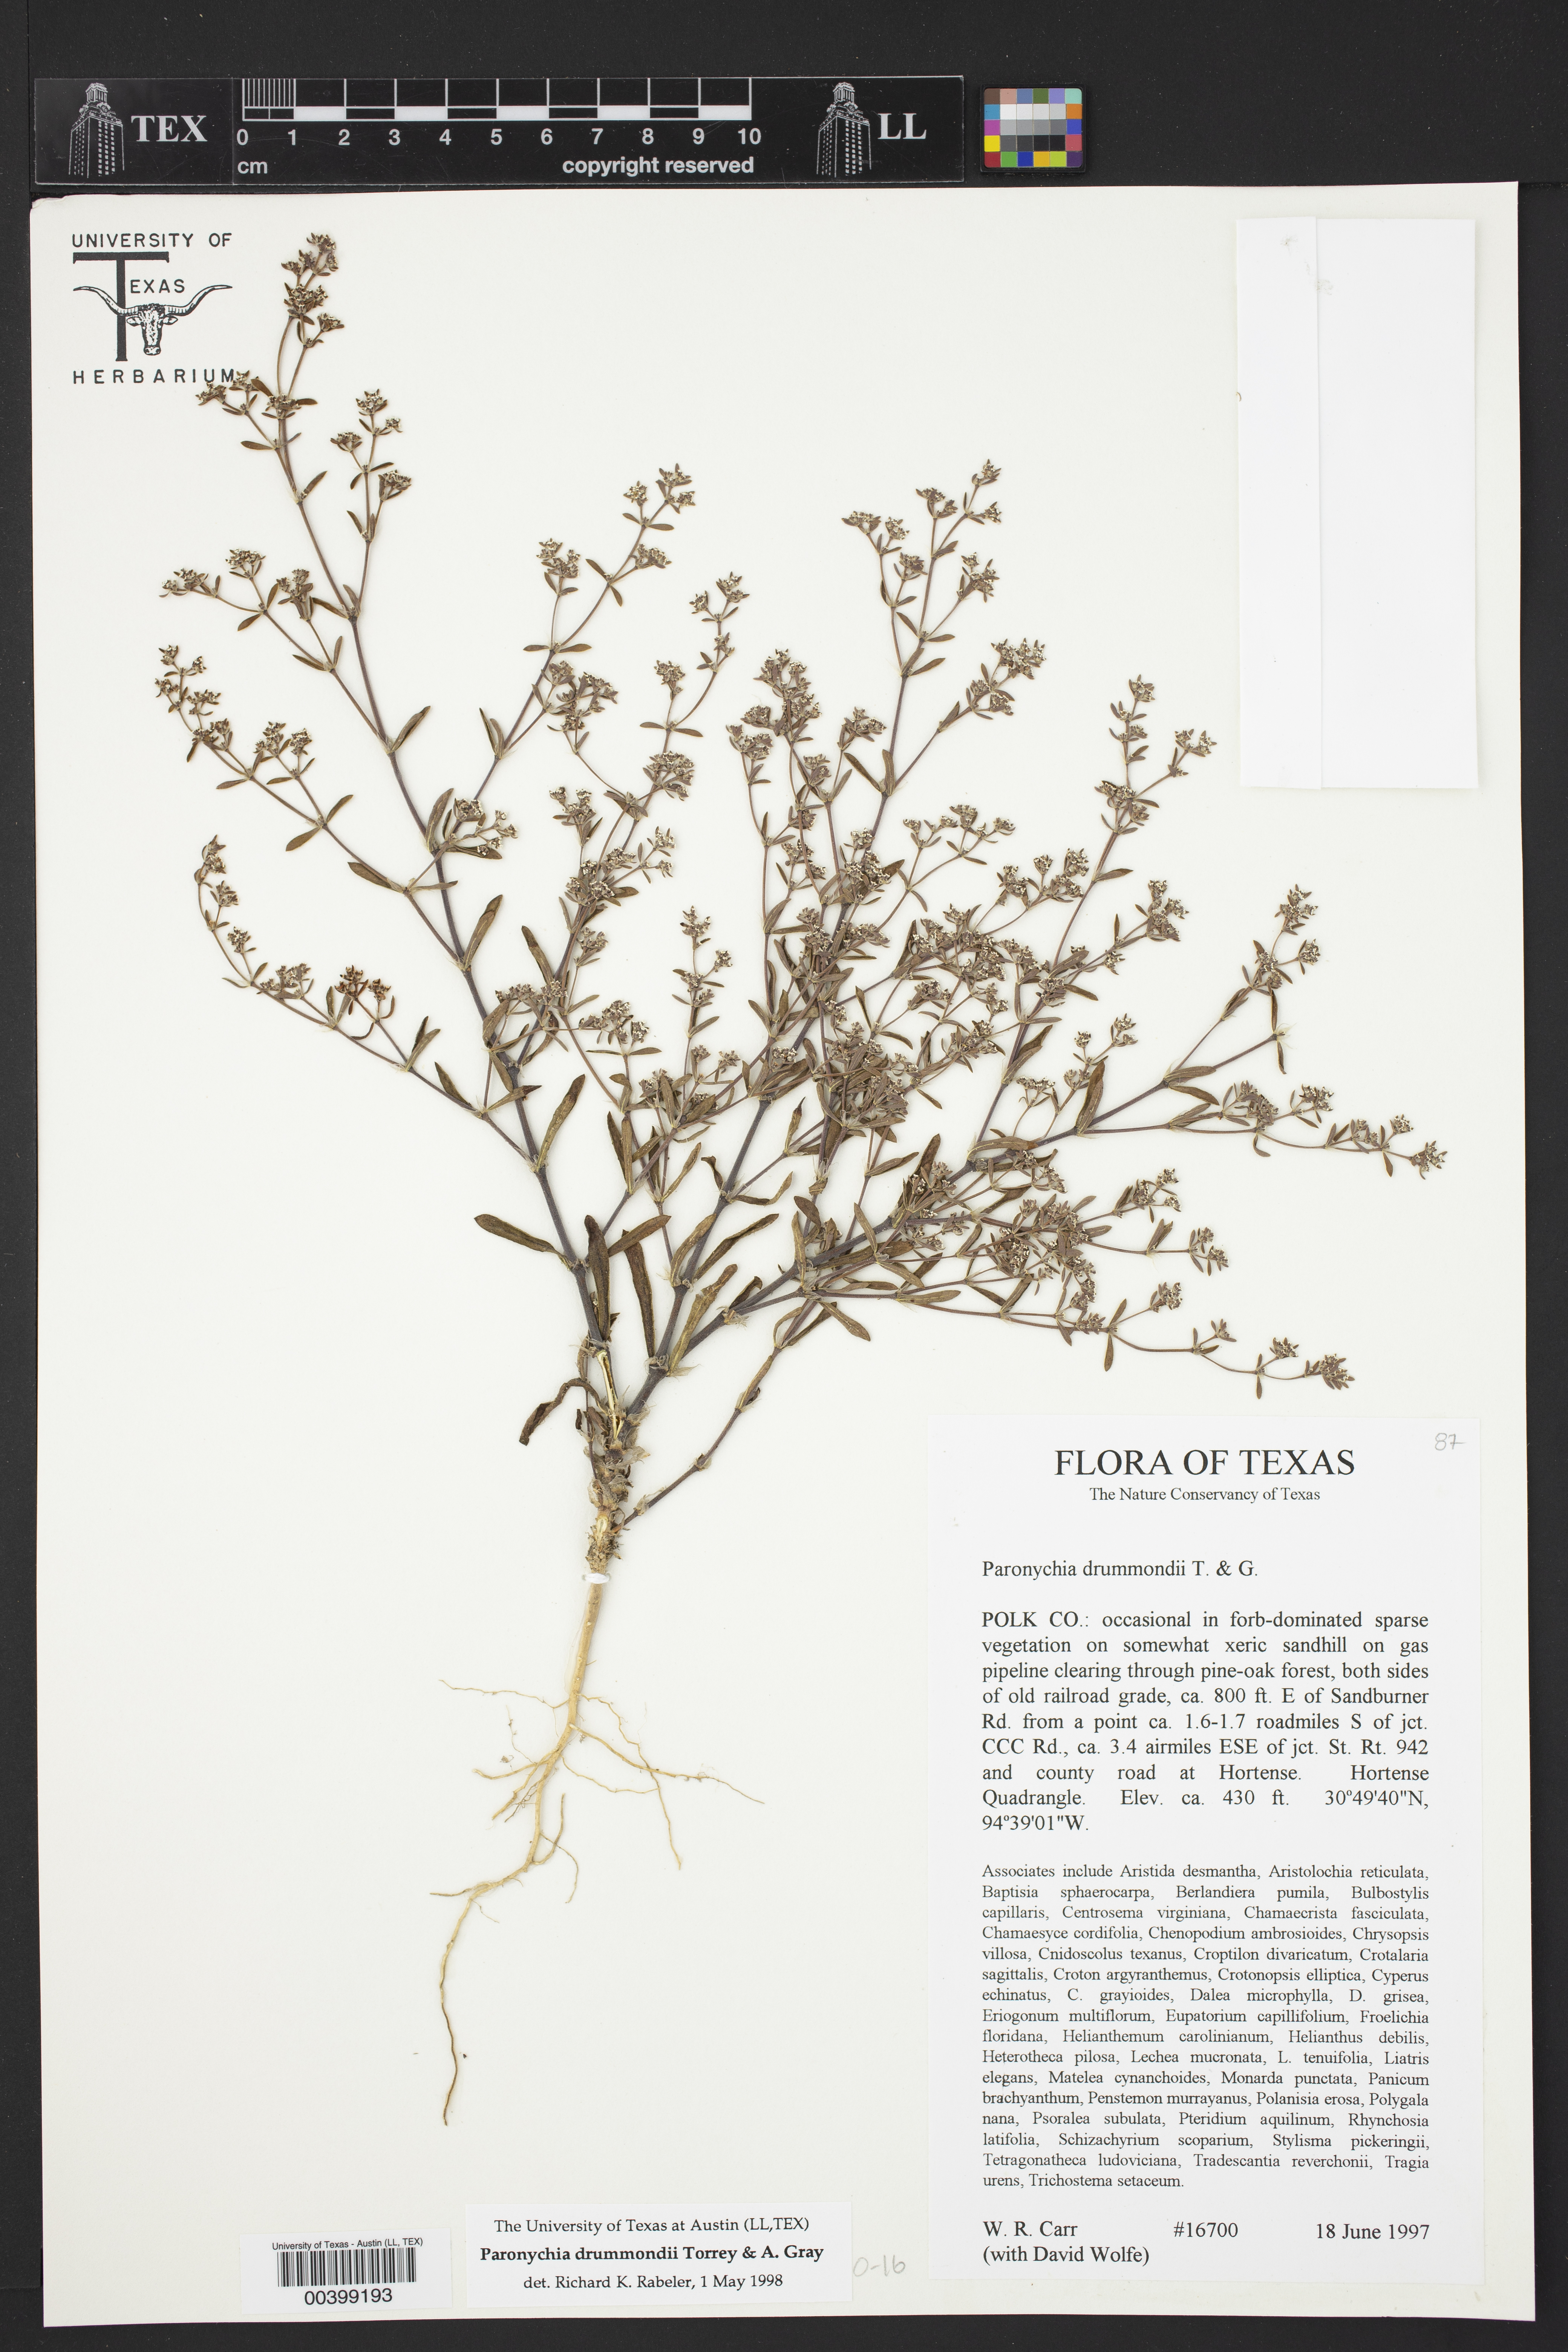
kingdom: Plantae
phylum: Tracheophyta
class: Magnoliopsida
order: Caryophyllales
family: Caryophyllaceae
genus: Paronychia
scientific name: Paronychia drummondii
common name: Drummond's nailwort
